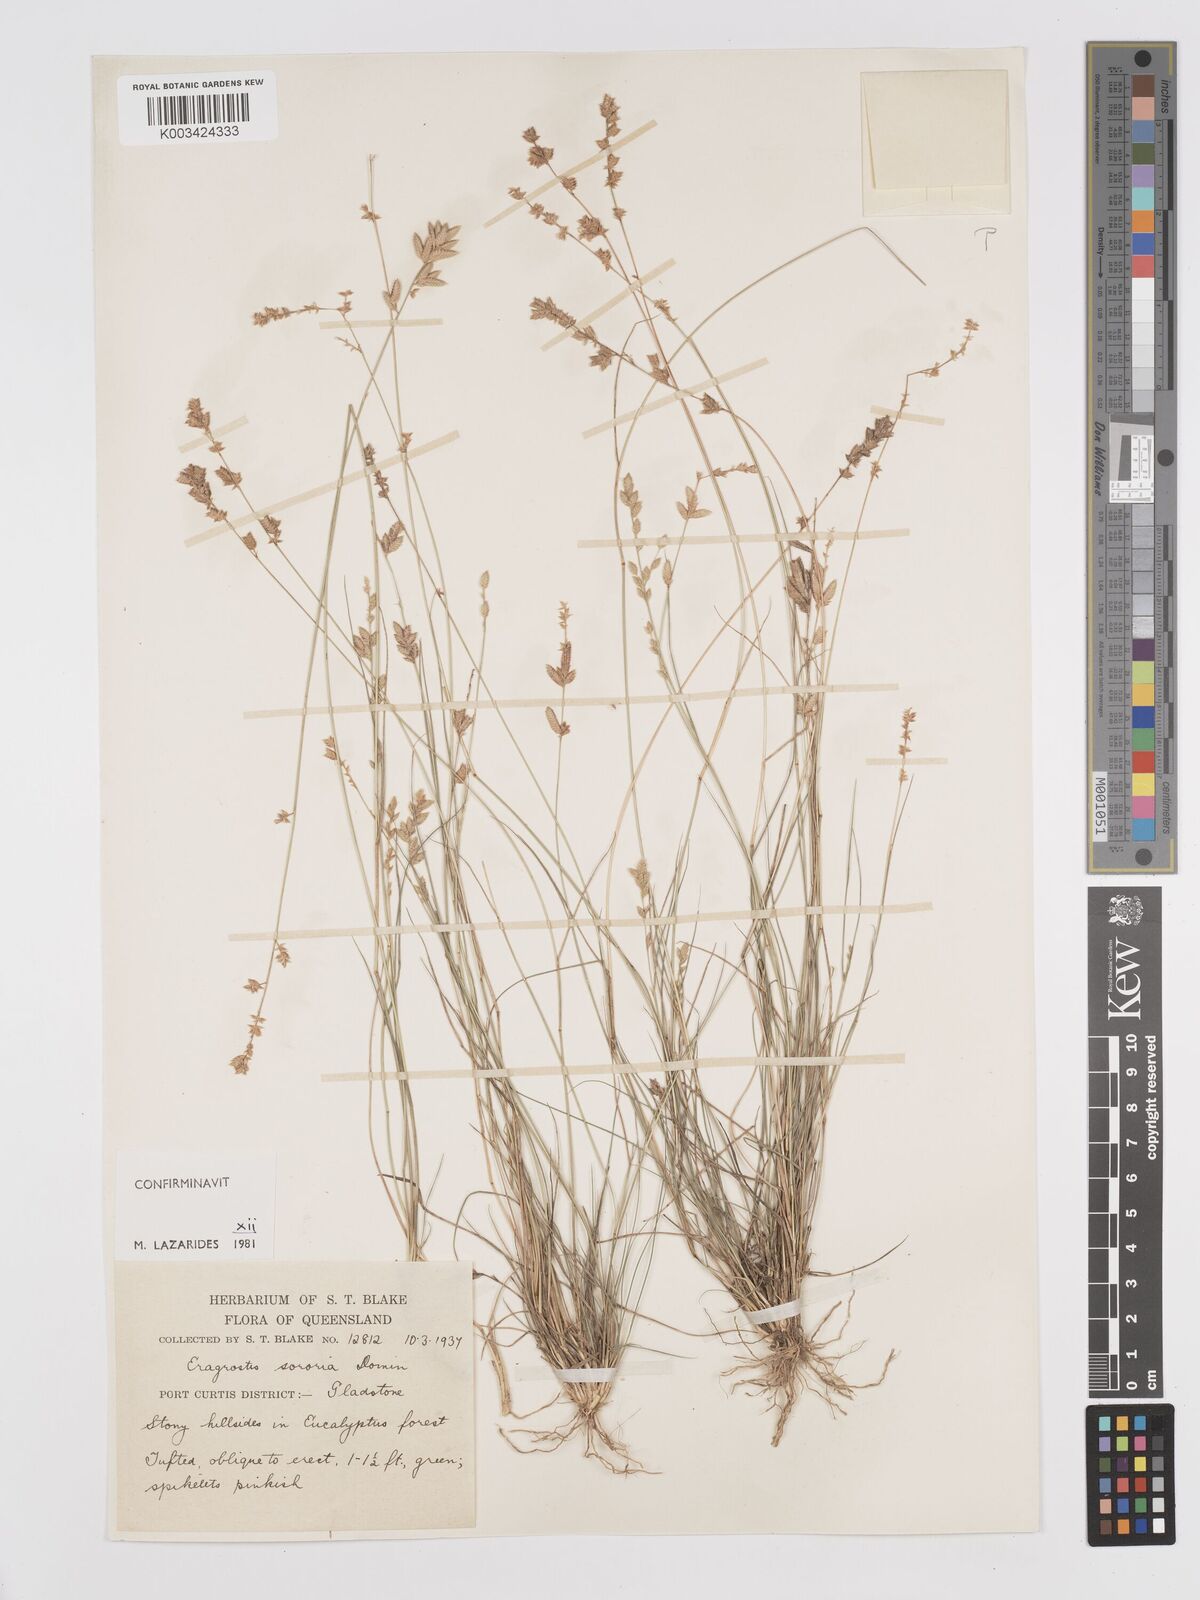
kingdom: Plantae
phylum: Tracheophyta
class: Liliopsida
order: Poales
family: Poaceae
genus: Eragrostis
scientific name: Eragrostis sororia
